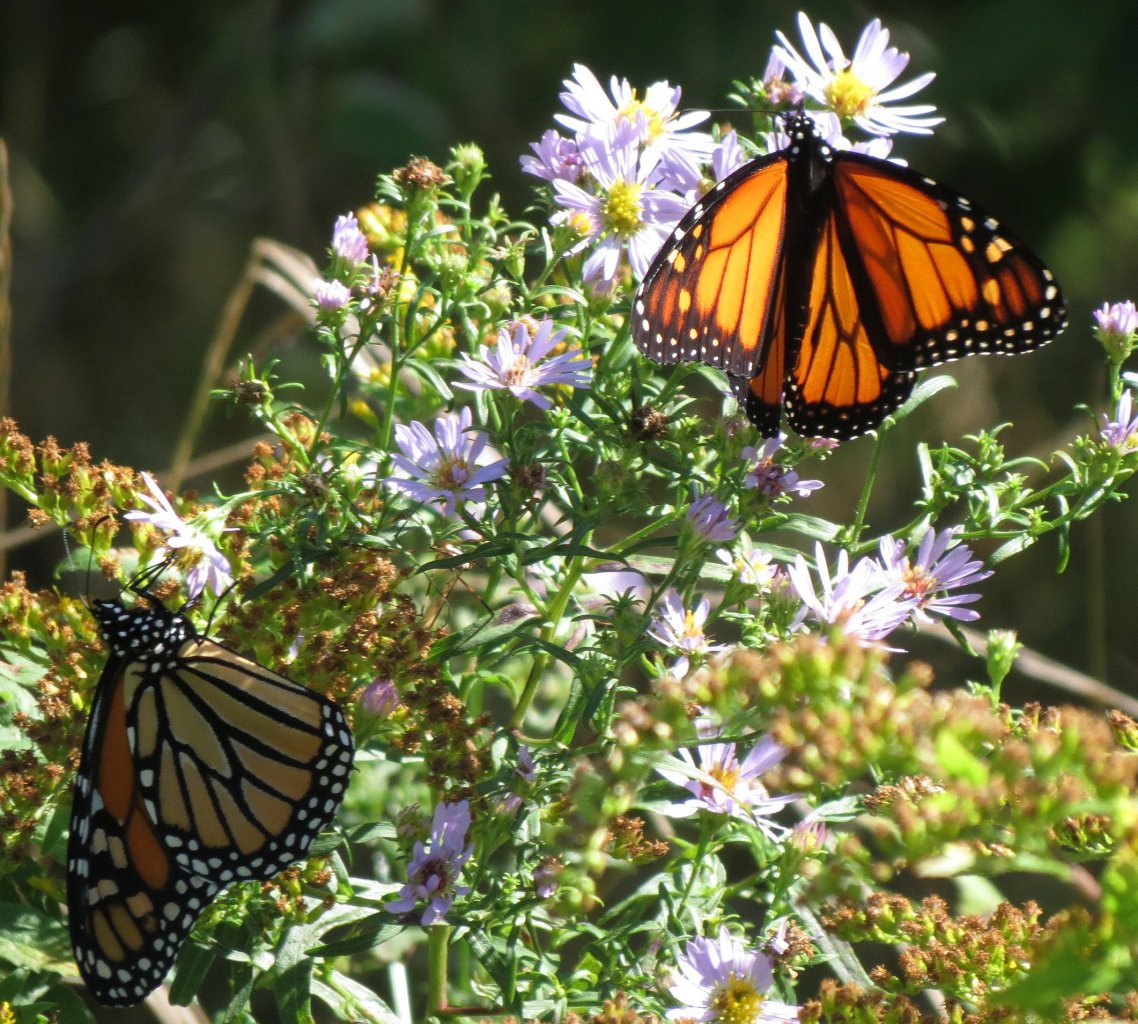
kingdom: Animalia
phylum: Arthropoda
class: Insecta
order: Lepidoptera
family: Nymphalidae
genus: Danaus
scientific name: Danaus plexippus
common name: Monarch
